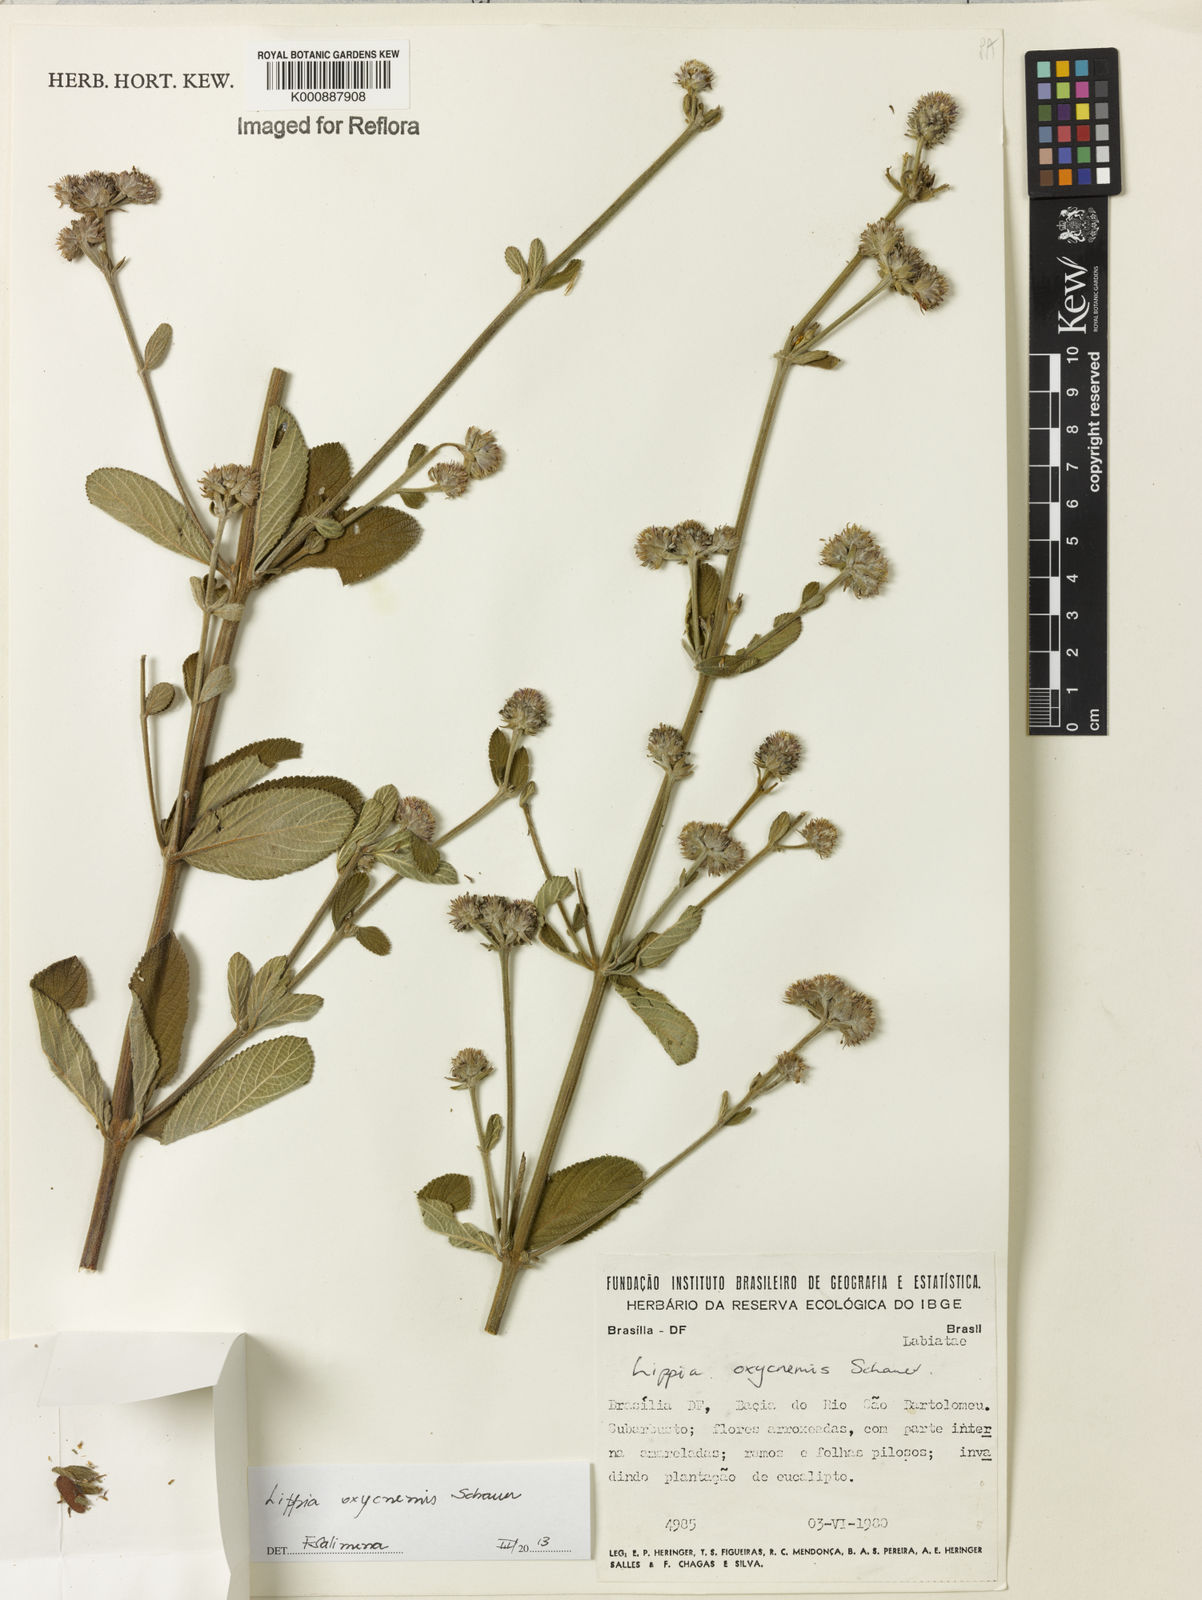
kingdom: Plantae
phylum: Tracheophyta
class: Magnoliopsida
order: Lamiales
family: Verbenaceae
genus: Lippia
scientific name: Lippia oxycnemis
